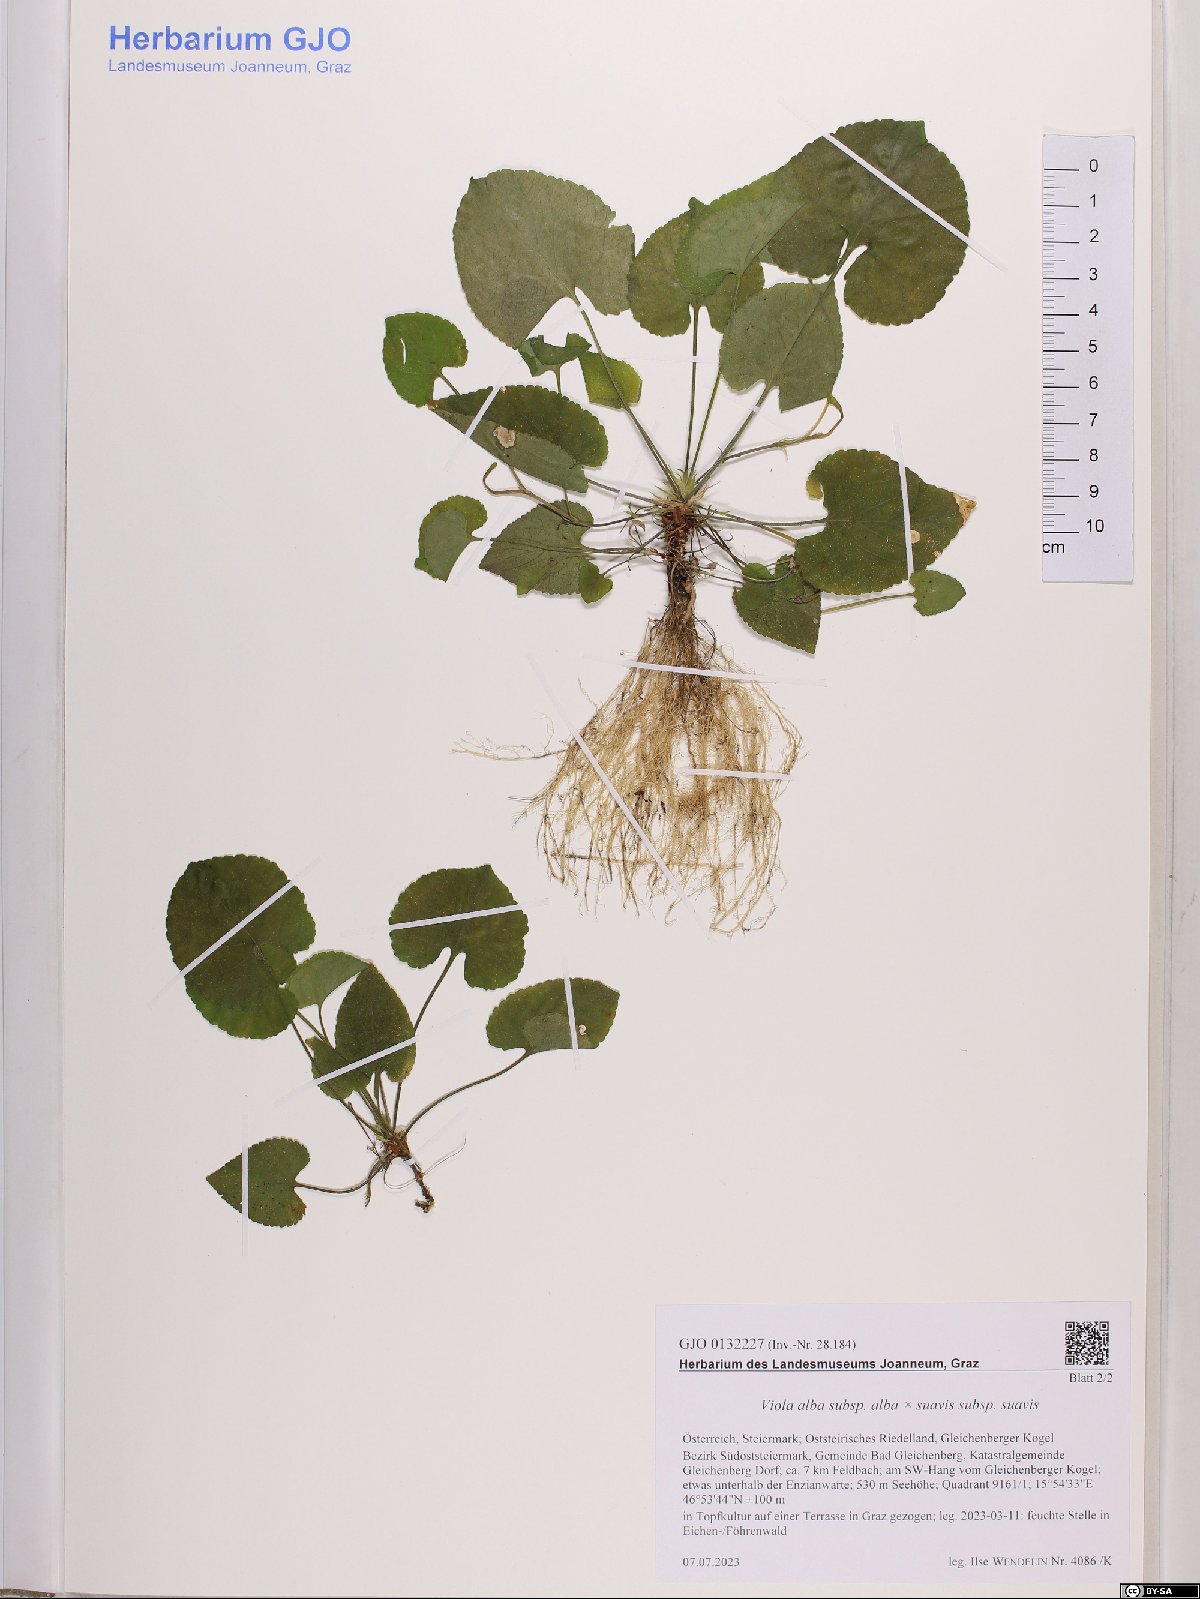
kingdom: Plantae
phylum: Tracheophyta
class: Magnoliopsida
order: Malpighiales
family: Violaceae
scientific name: Violaceae
